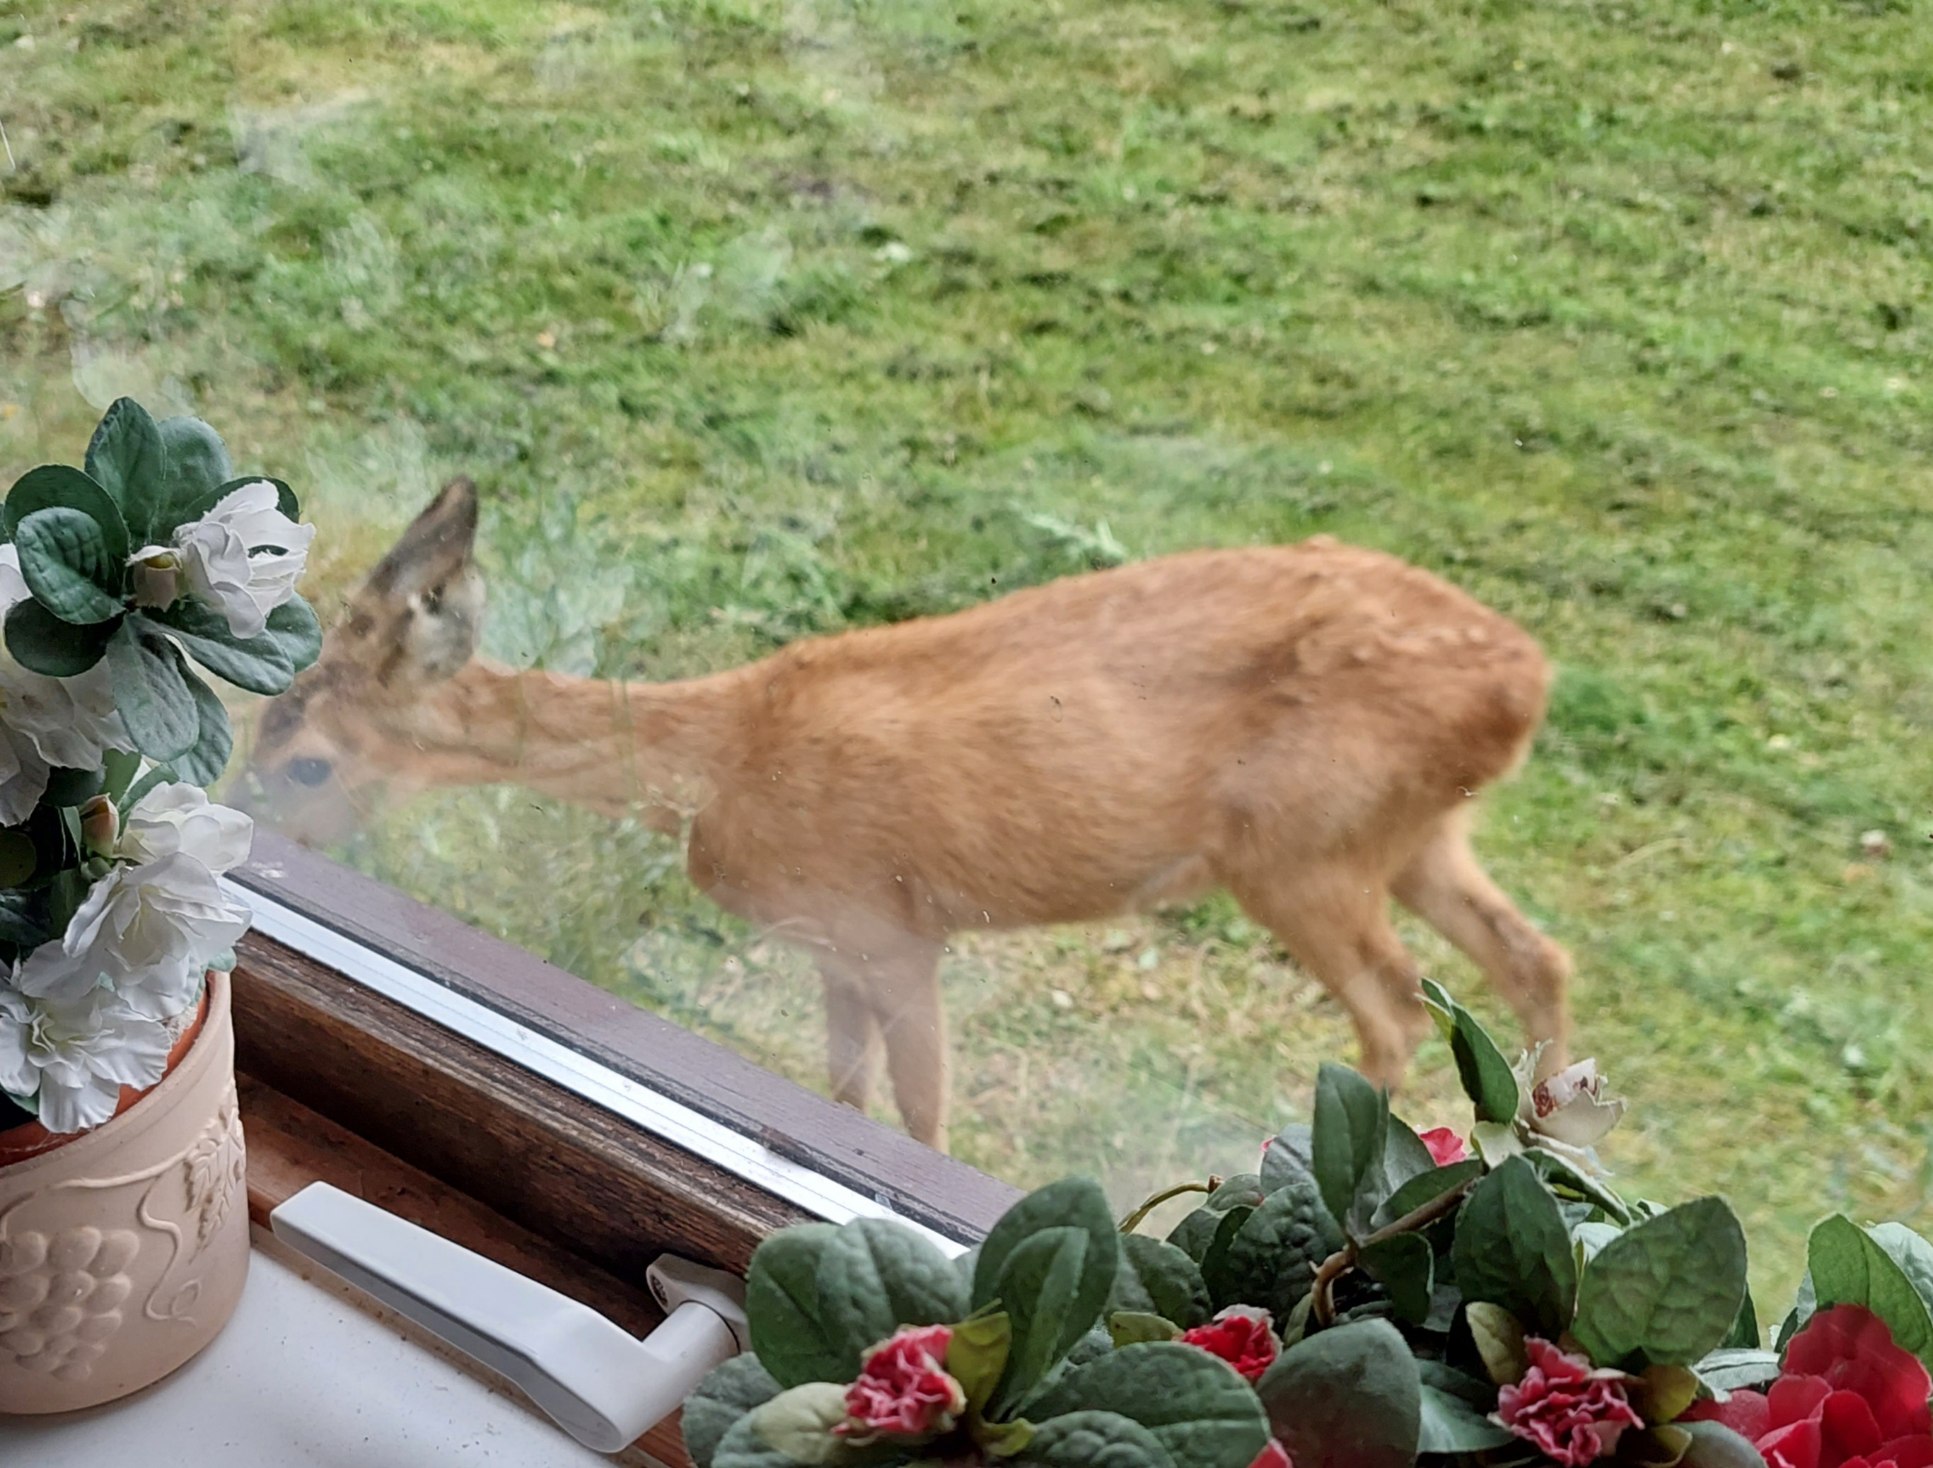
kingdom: Animalia
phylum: Chordata
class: Mammalia
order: Artiodactyla
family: Cervidae
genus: Capreolus
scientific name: Capreolus capreolus
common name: Rådyr
